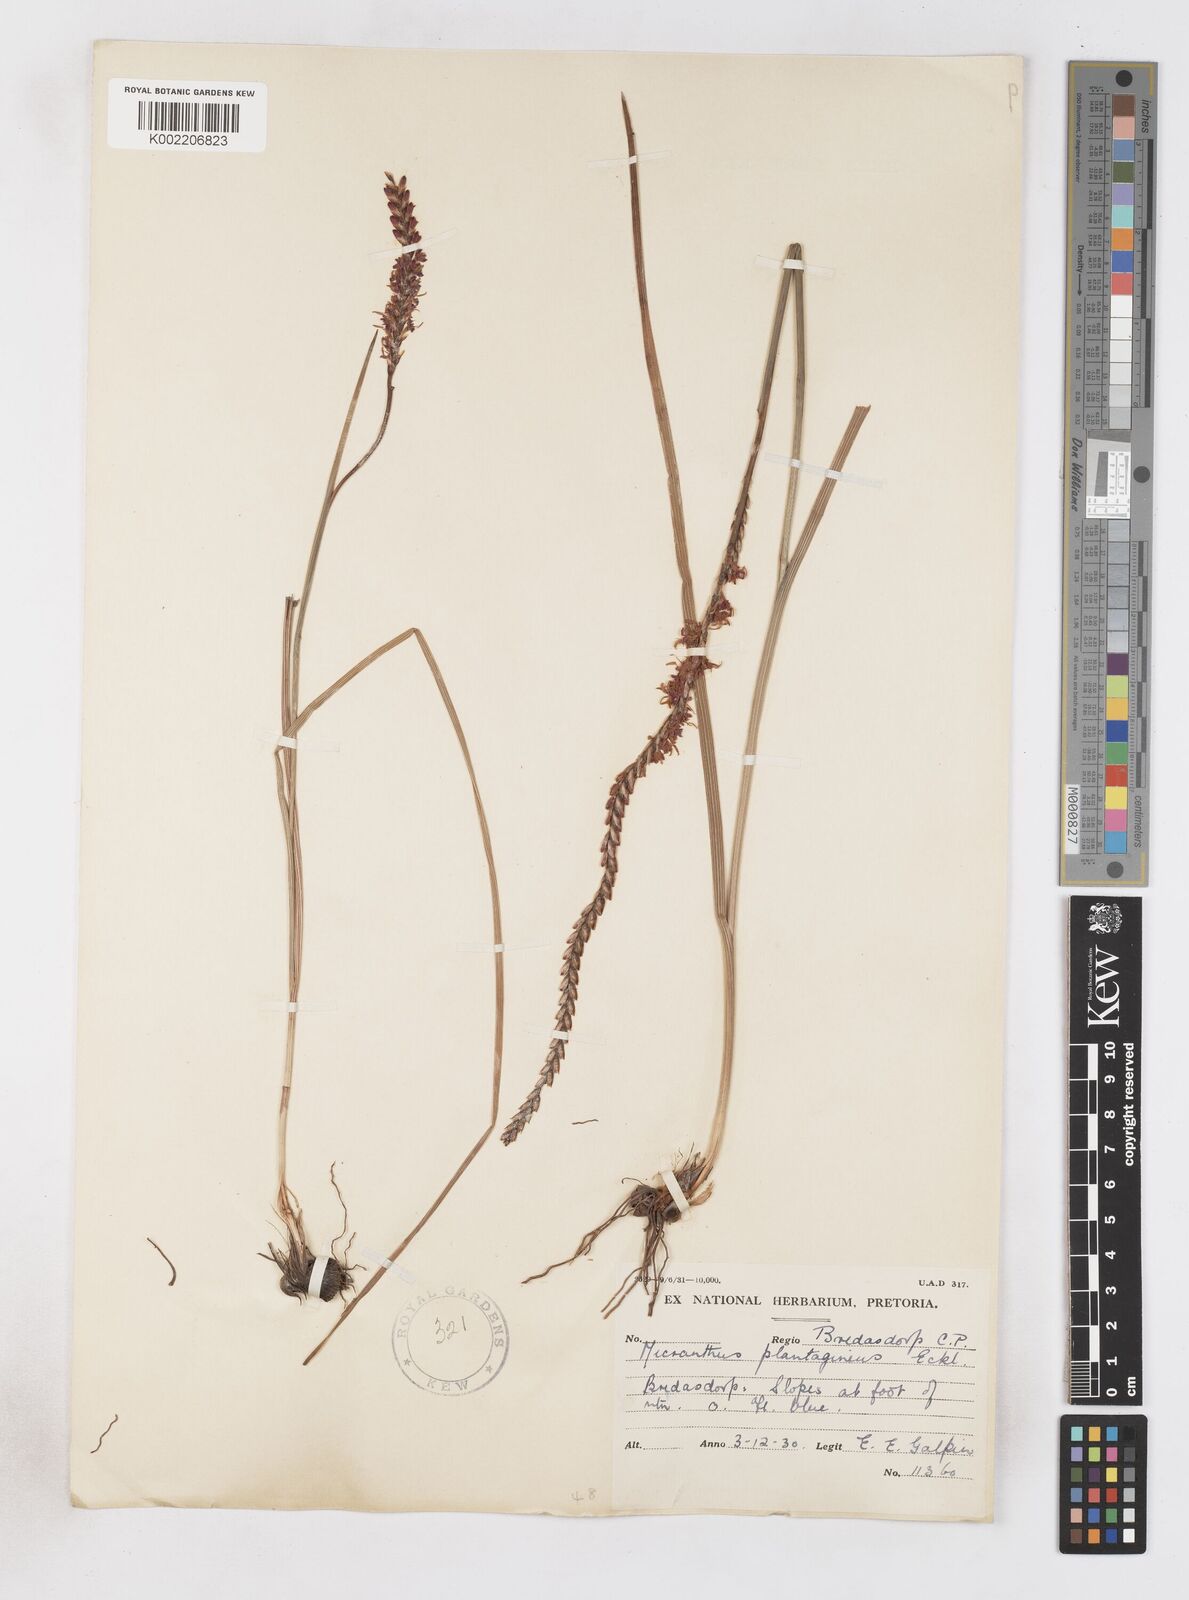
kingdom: Plantae
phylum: Tracheophyta
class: Liliopsida
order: Asparagales
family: Iridaceae
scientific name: Iridaceae
